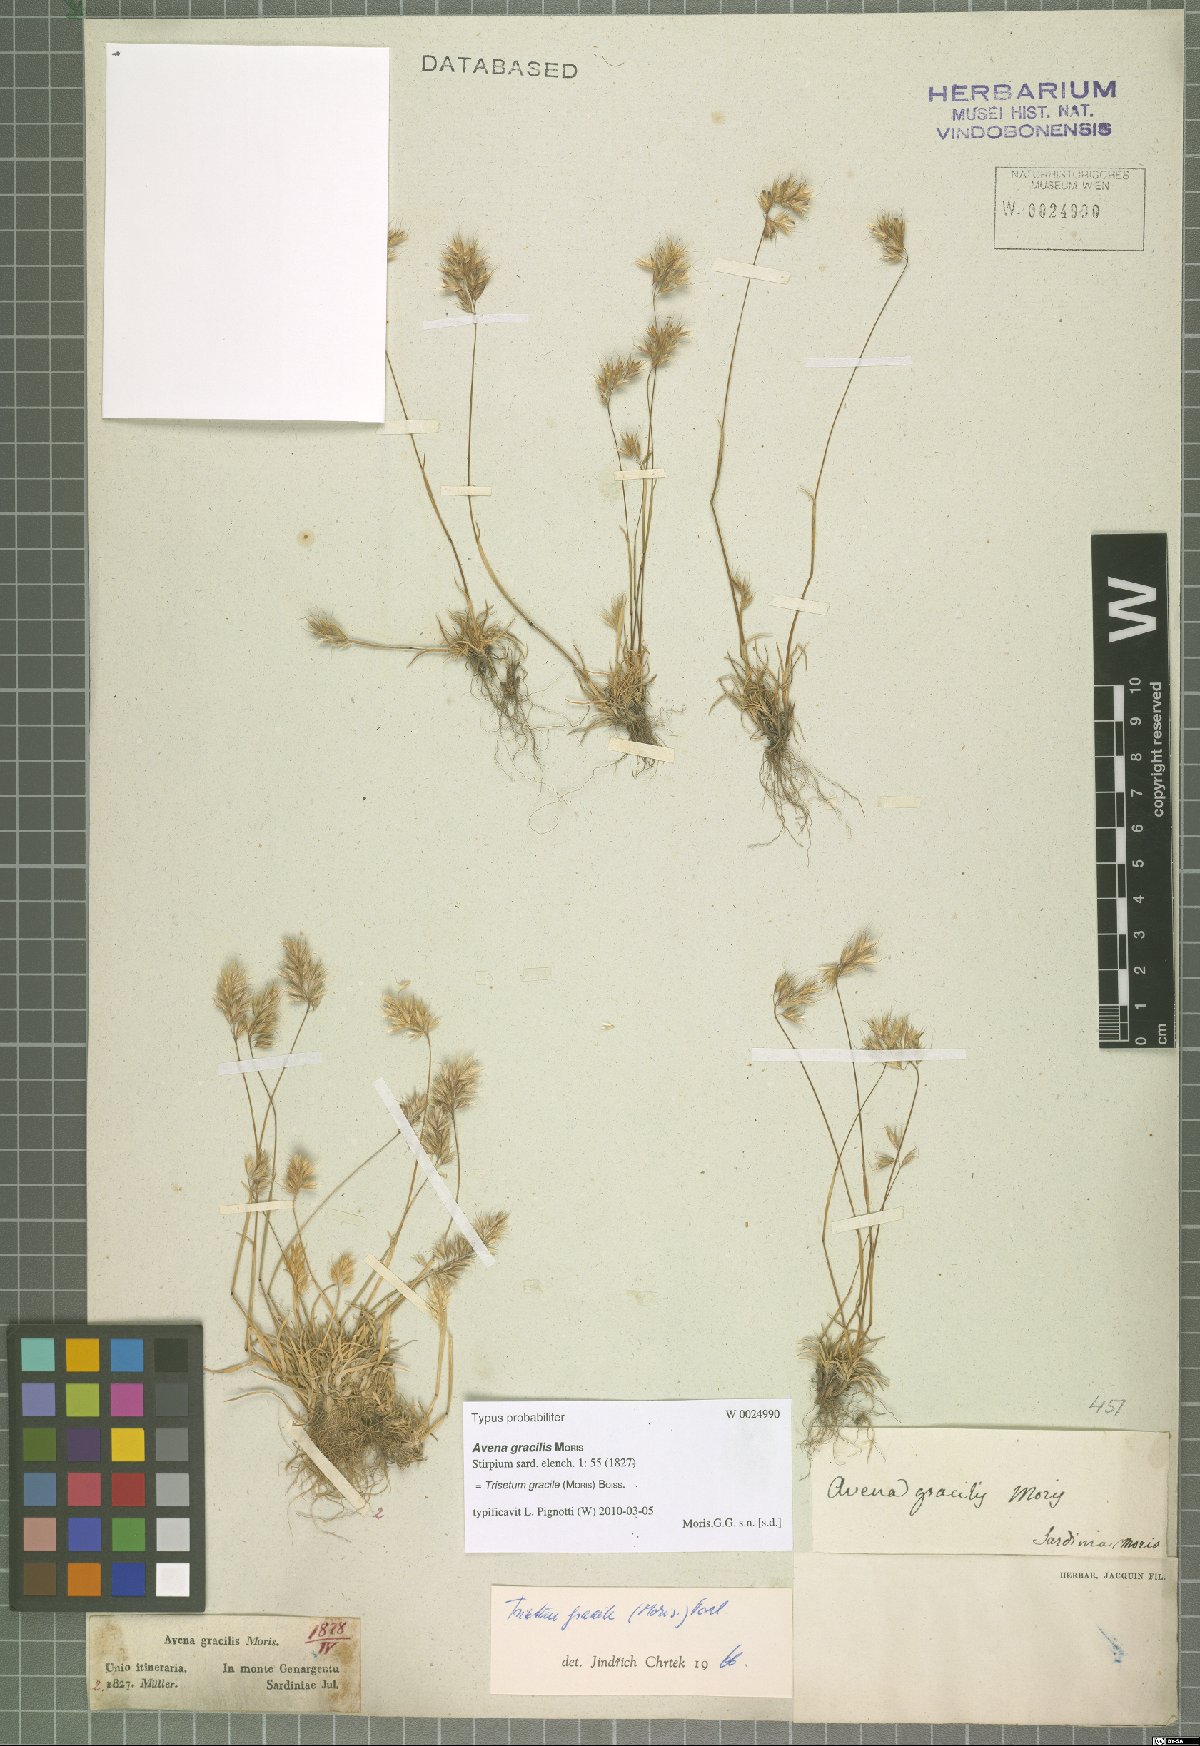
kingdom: Plantae
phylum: Tracheophyta
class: Liliopsida
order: Poales
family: Poaceae
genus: Trisetum
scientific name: Trisetum gracile
